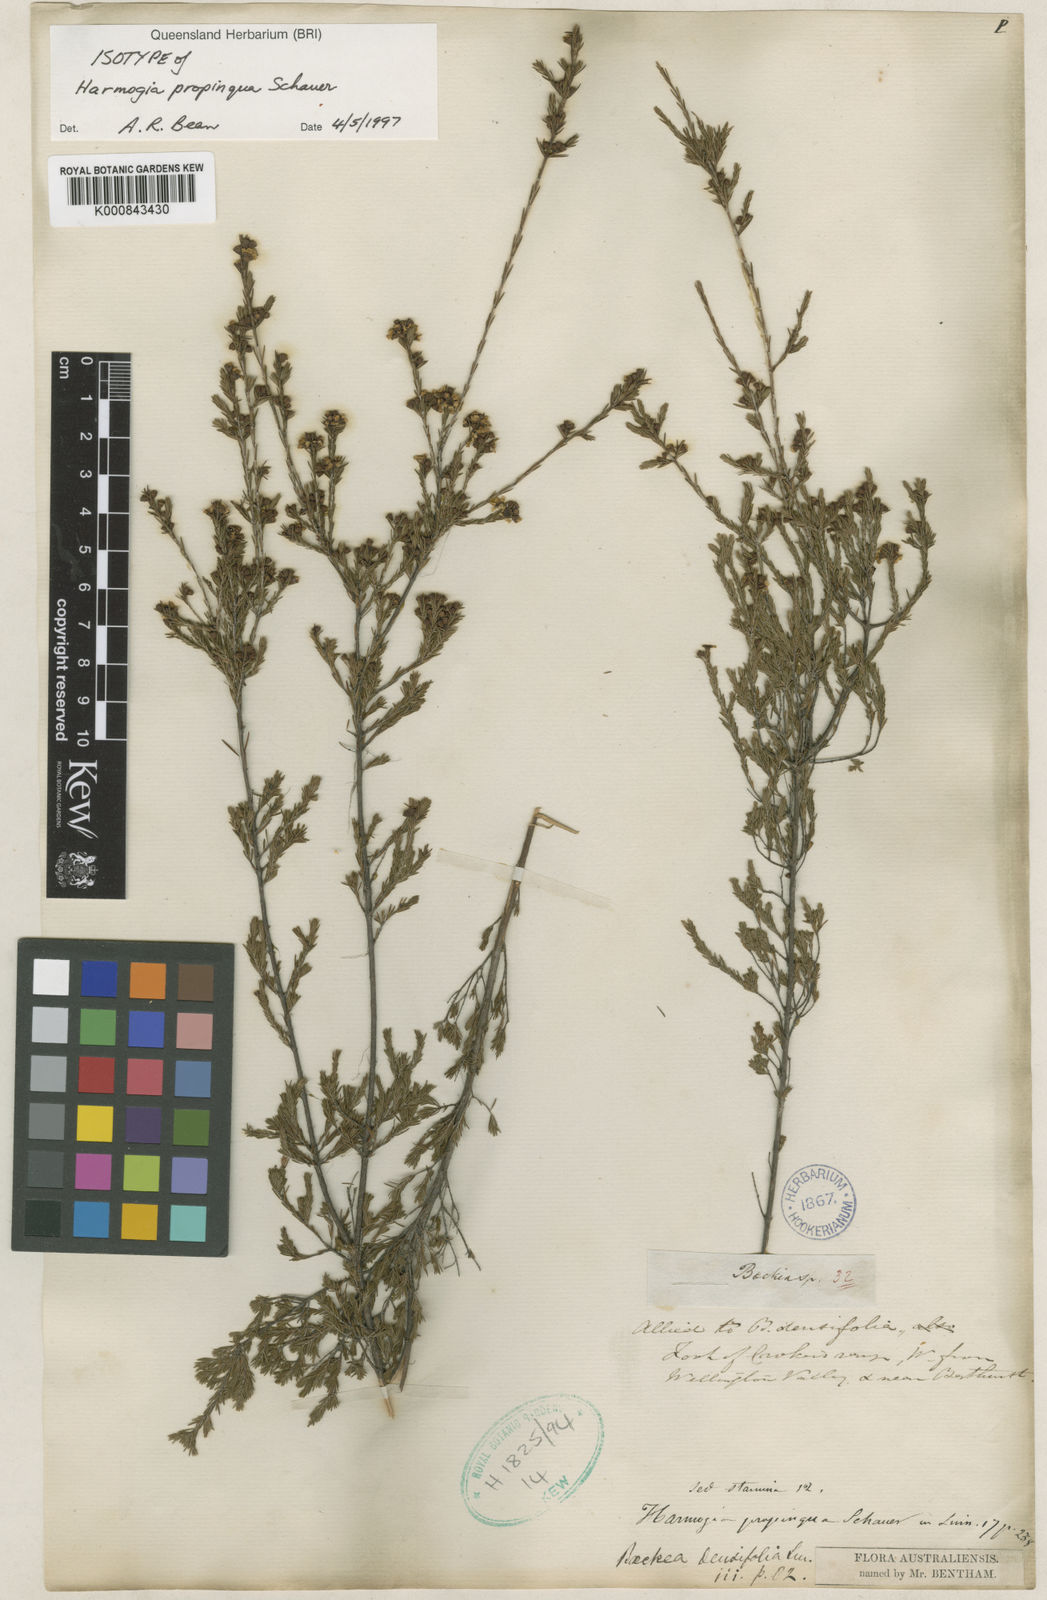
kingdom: Plantae
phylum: Tracheophyta
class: Magnoliopsida
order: Myrtales
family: Myrtaceae
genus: Harmogia
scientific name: Harmogia densifolia
